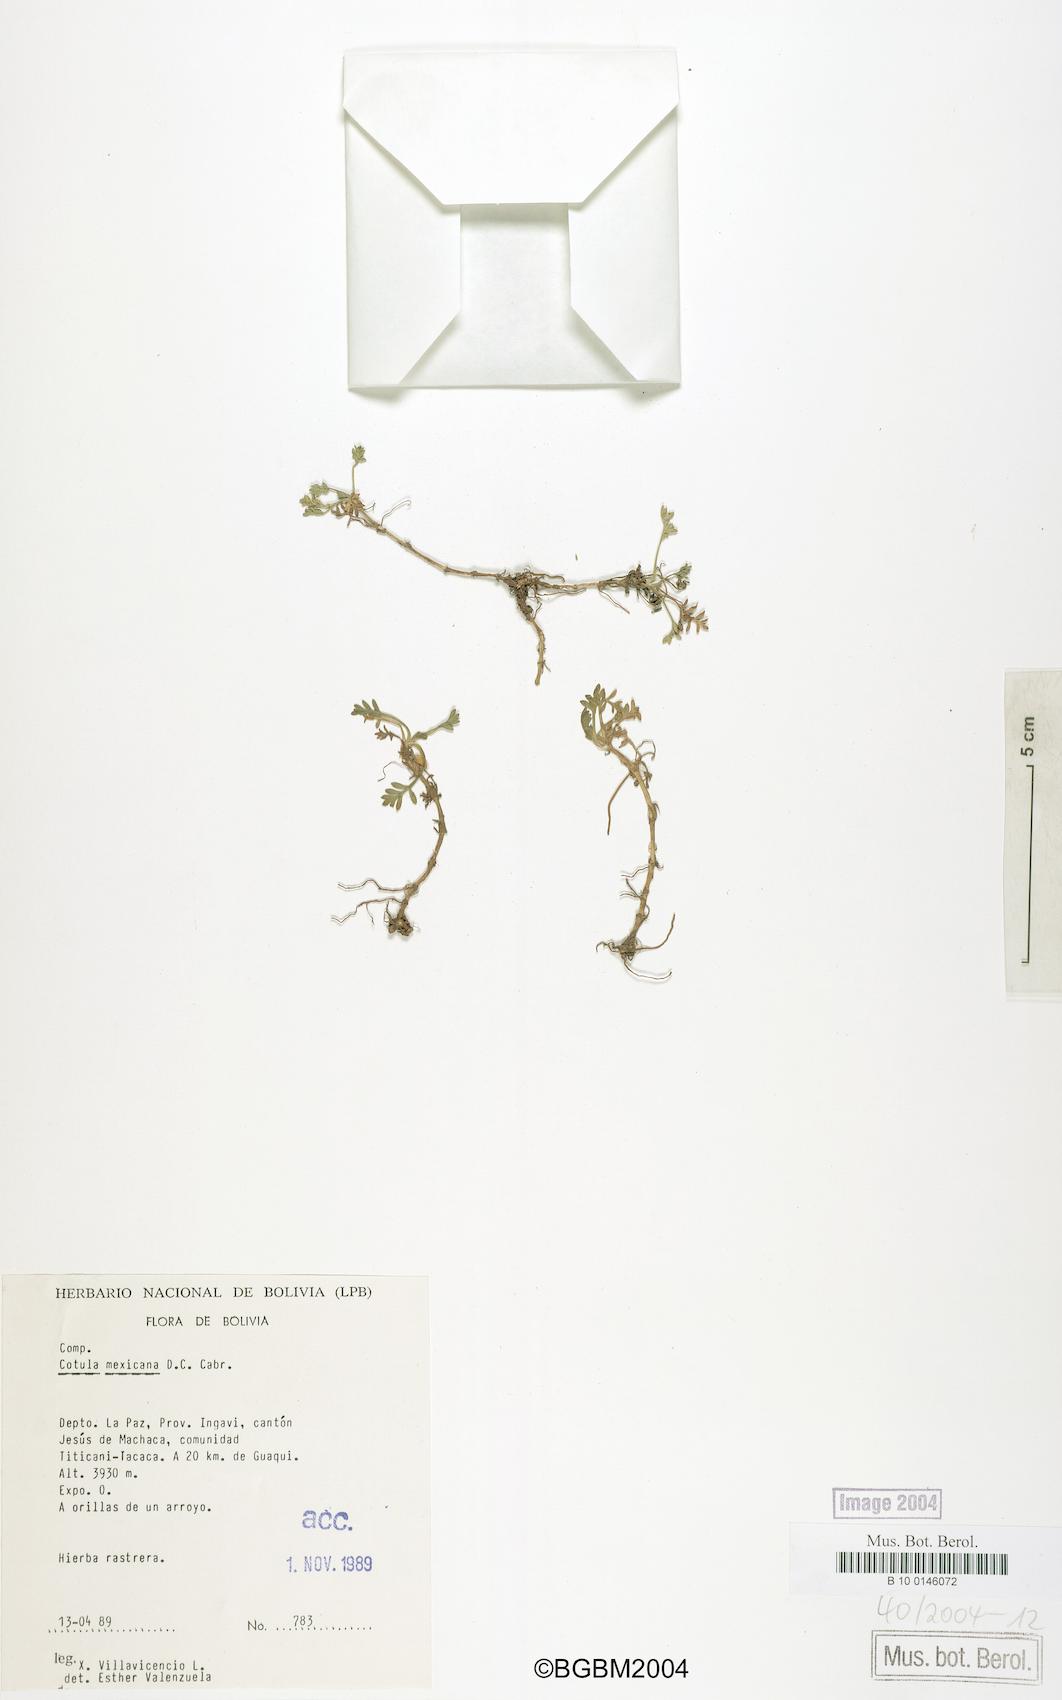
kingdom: Plantae
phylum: Tracheophyta
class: Magnoliopsida
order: Asterales
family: Asteraceae
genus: Soliva
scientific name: Soliva mexicana
